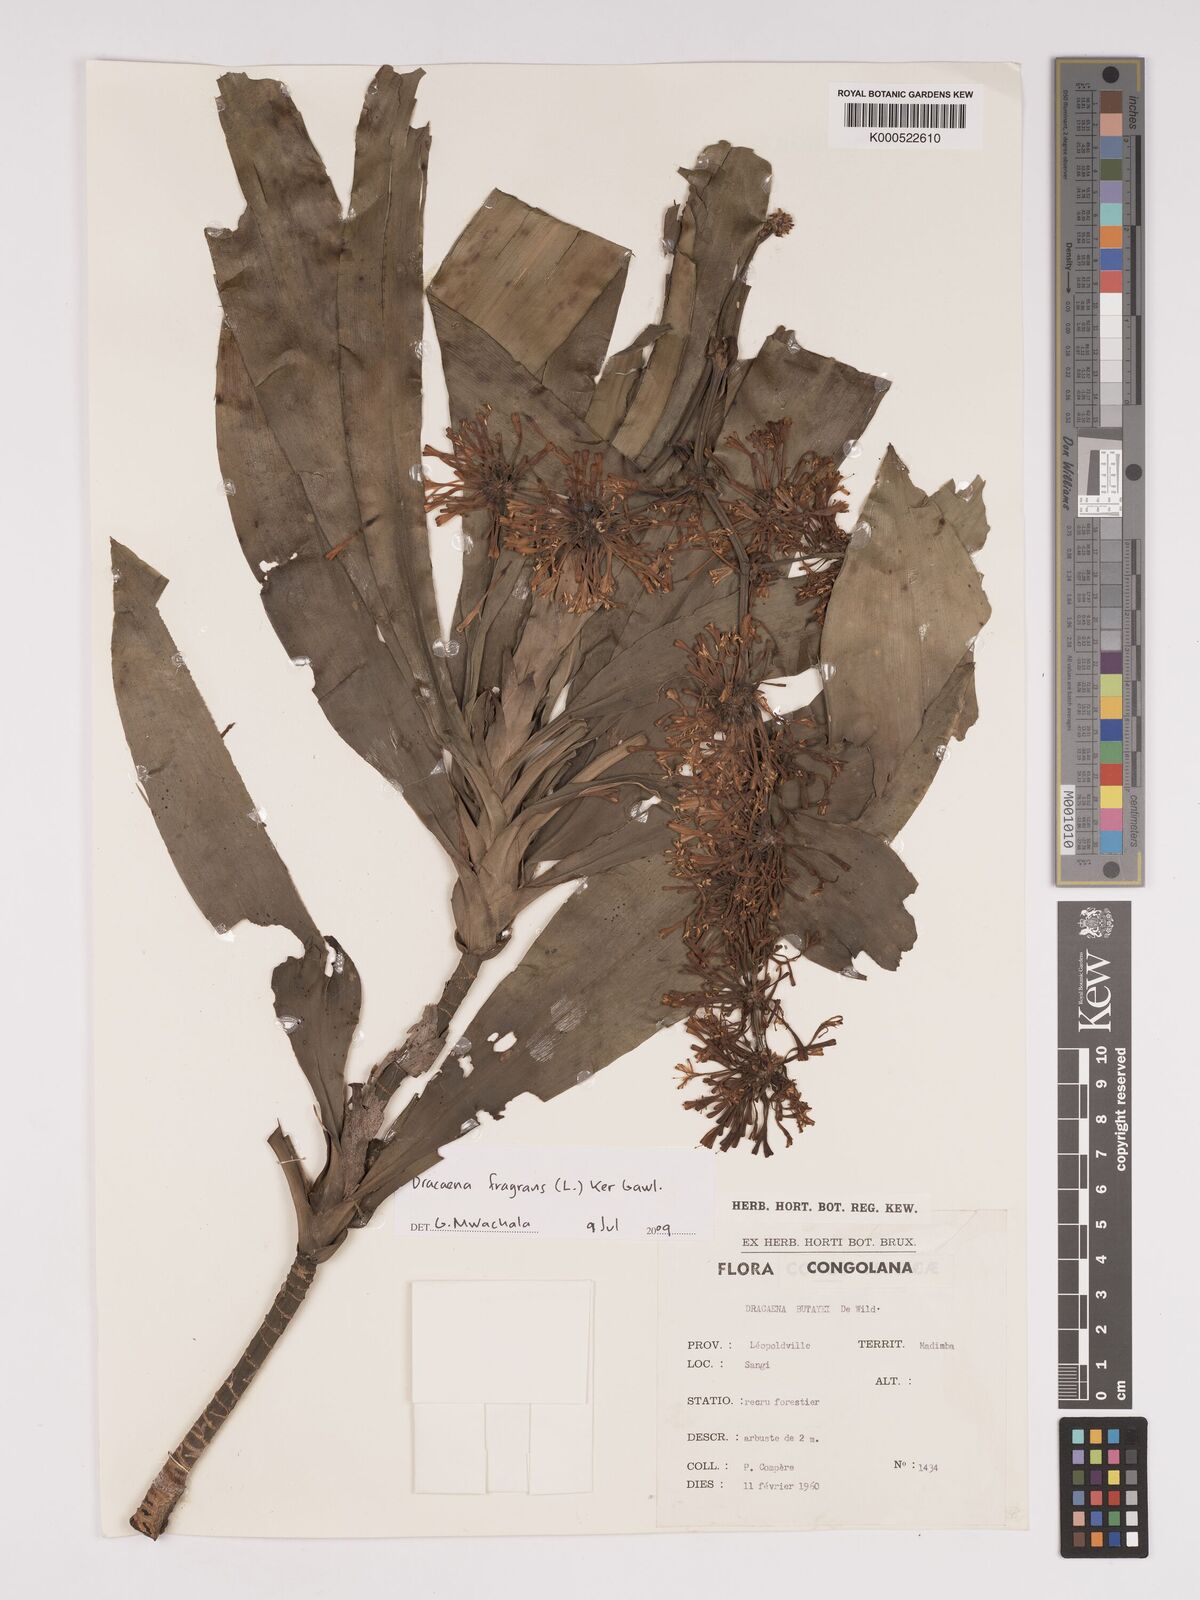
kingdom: Plantae
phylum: Tracheophyta
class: Liliopsida
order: Asparagales
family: Asparagaceae
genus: Dracaena
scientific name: Dracaena fragrans
